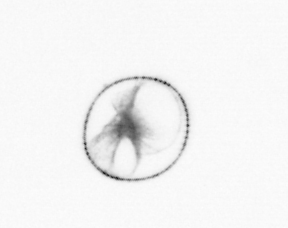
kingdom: Chromista
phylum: Myzozoa
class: Dinophyceae
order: Noctilucales
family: Noctilucaceae
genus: Noctiluca
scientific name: Noctiluca scintillans
